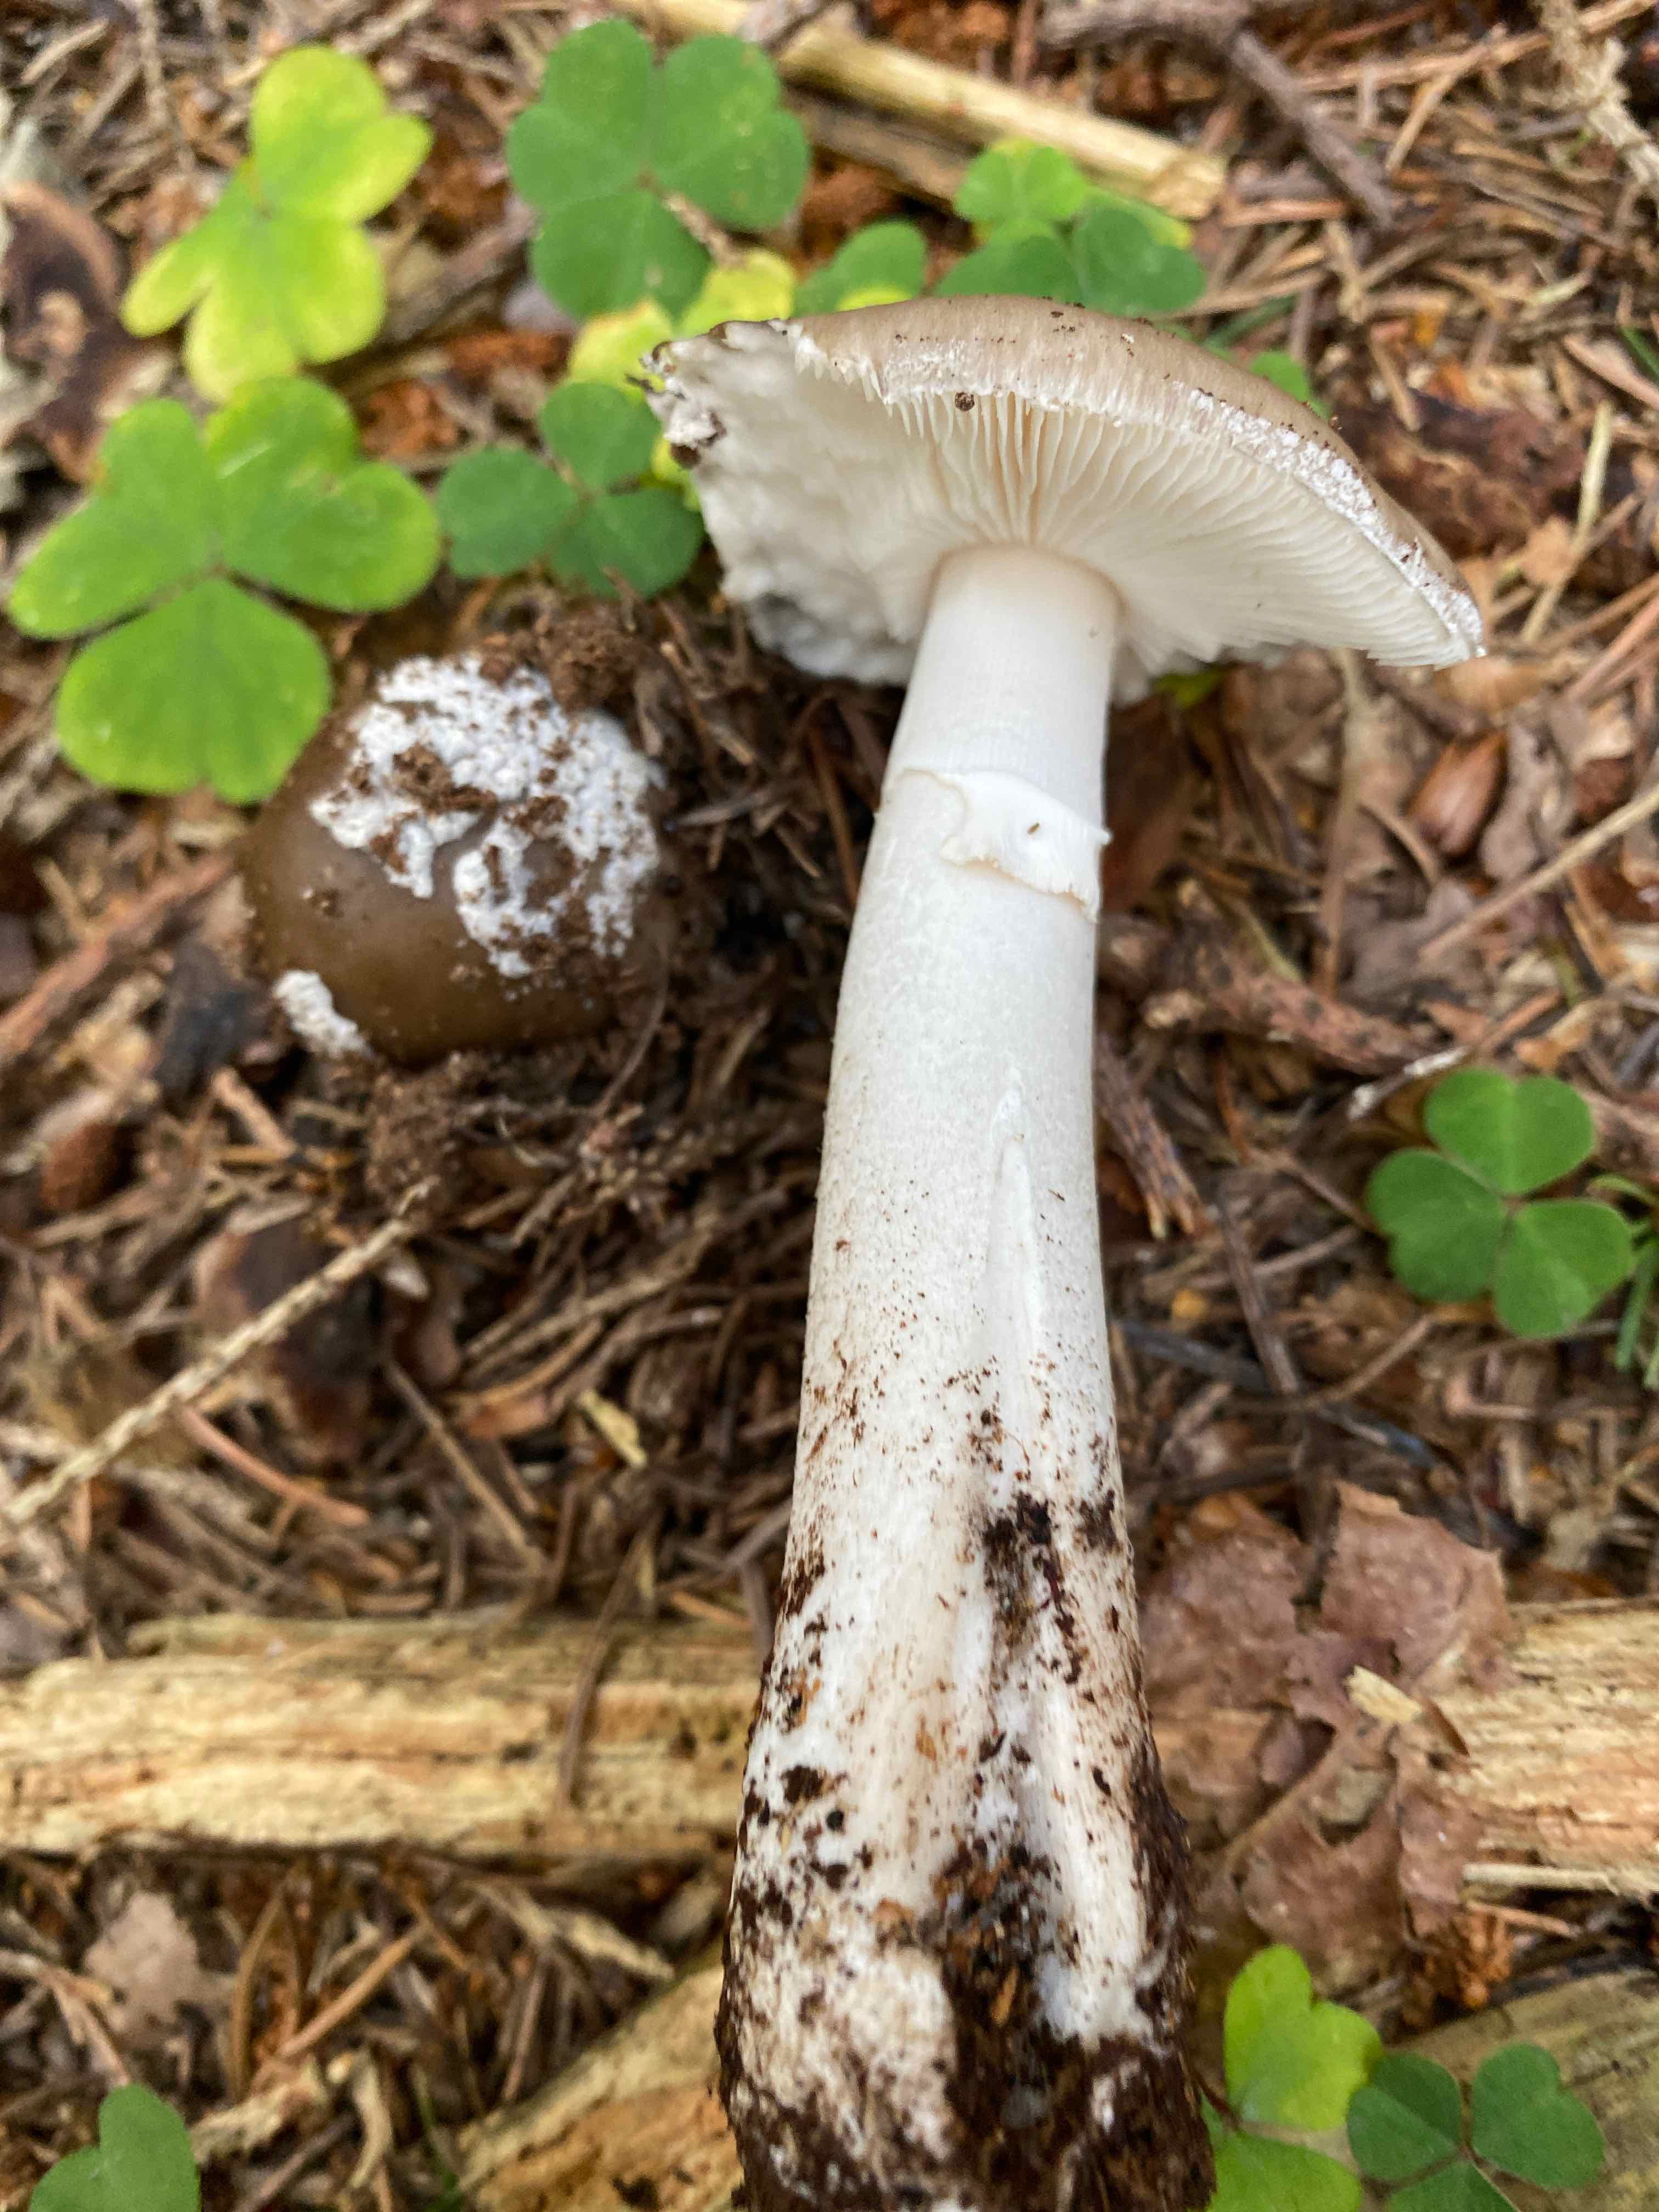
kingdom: Fungi
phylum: Basidiomycota
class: Agaricomycetes
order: Agaricales
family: Amanitaceae
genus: Amanita
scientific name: Amanita
